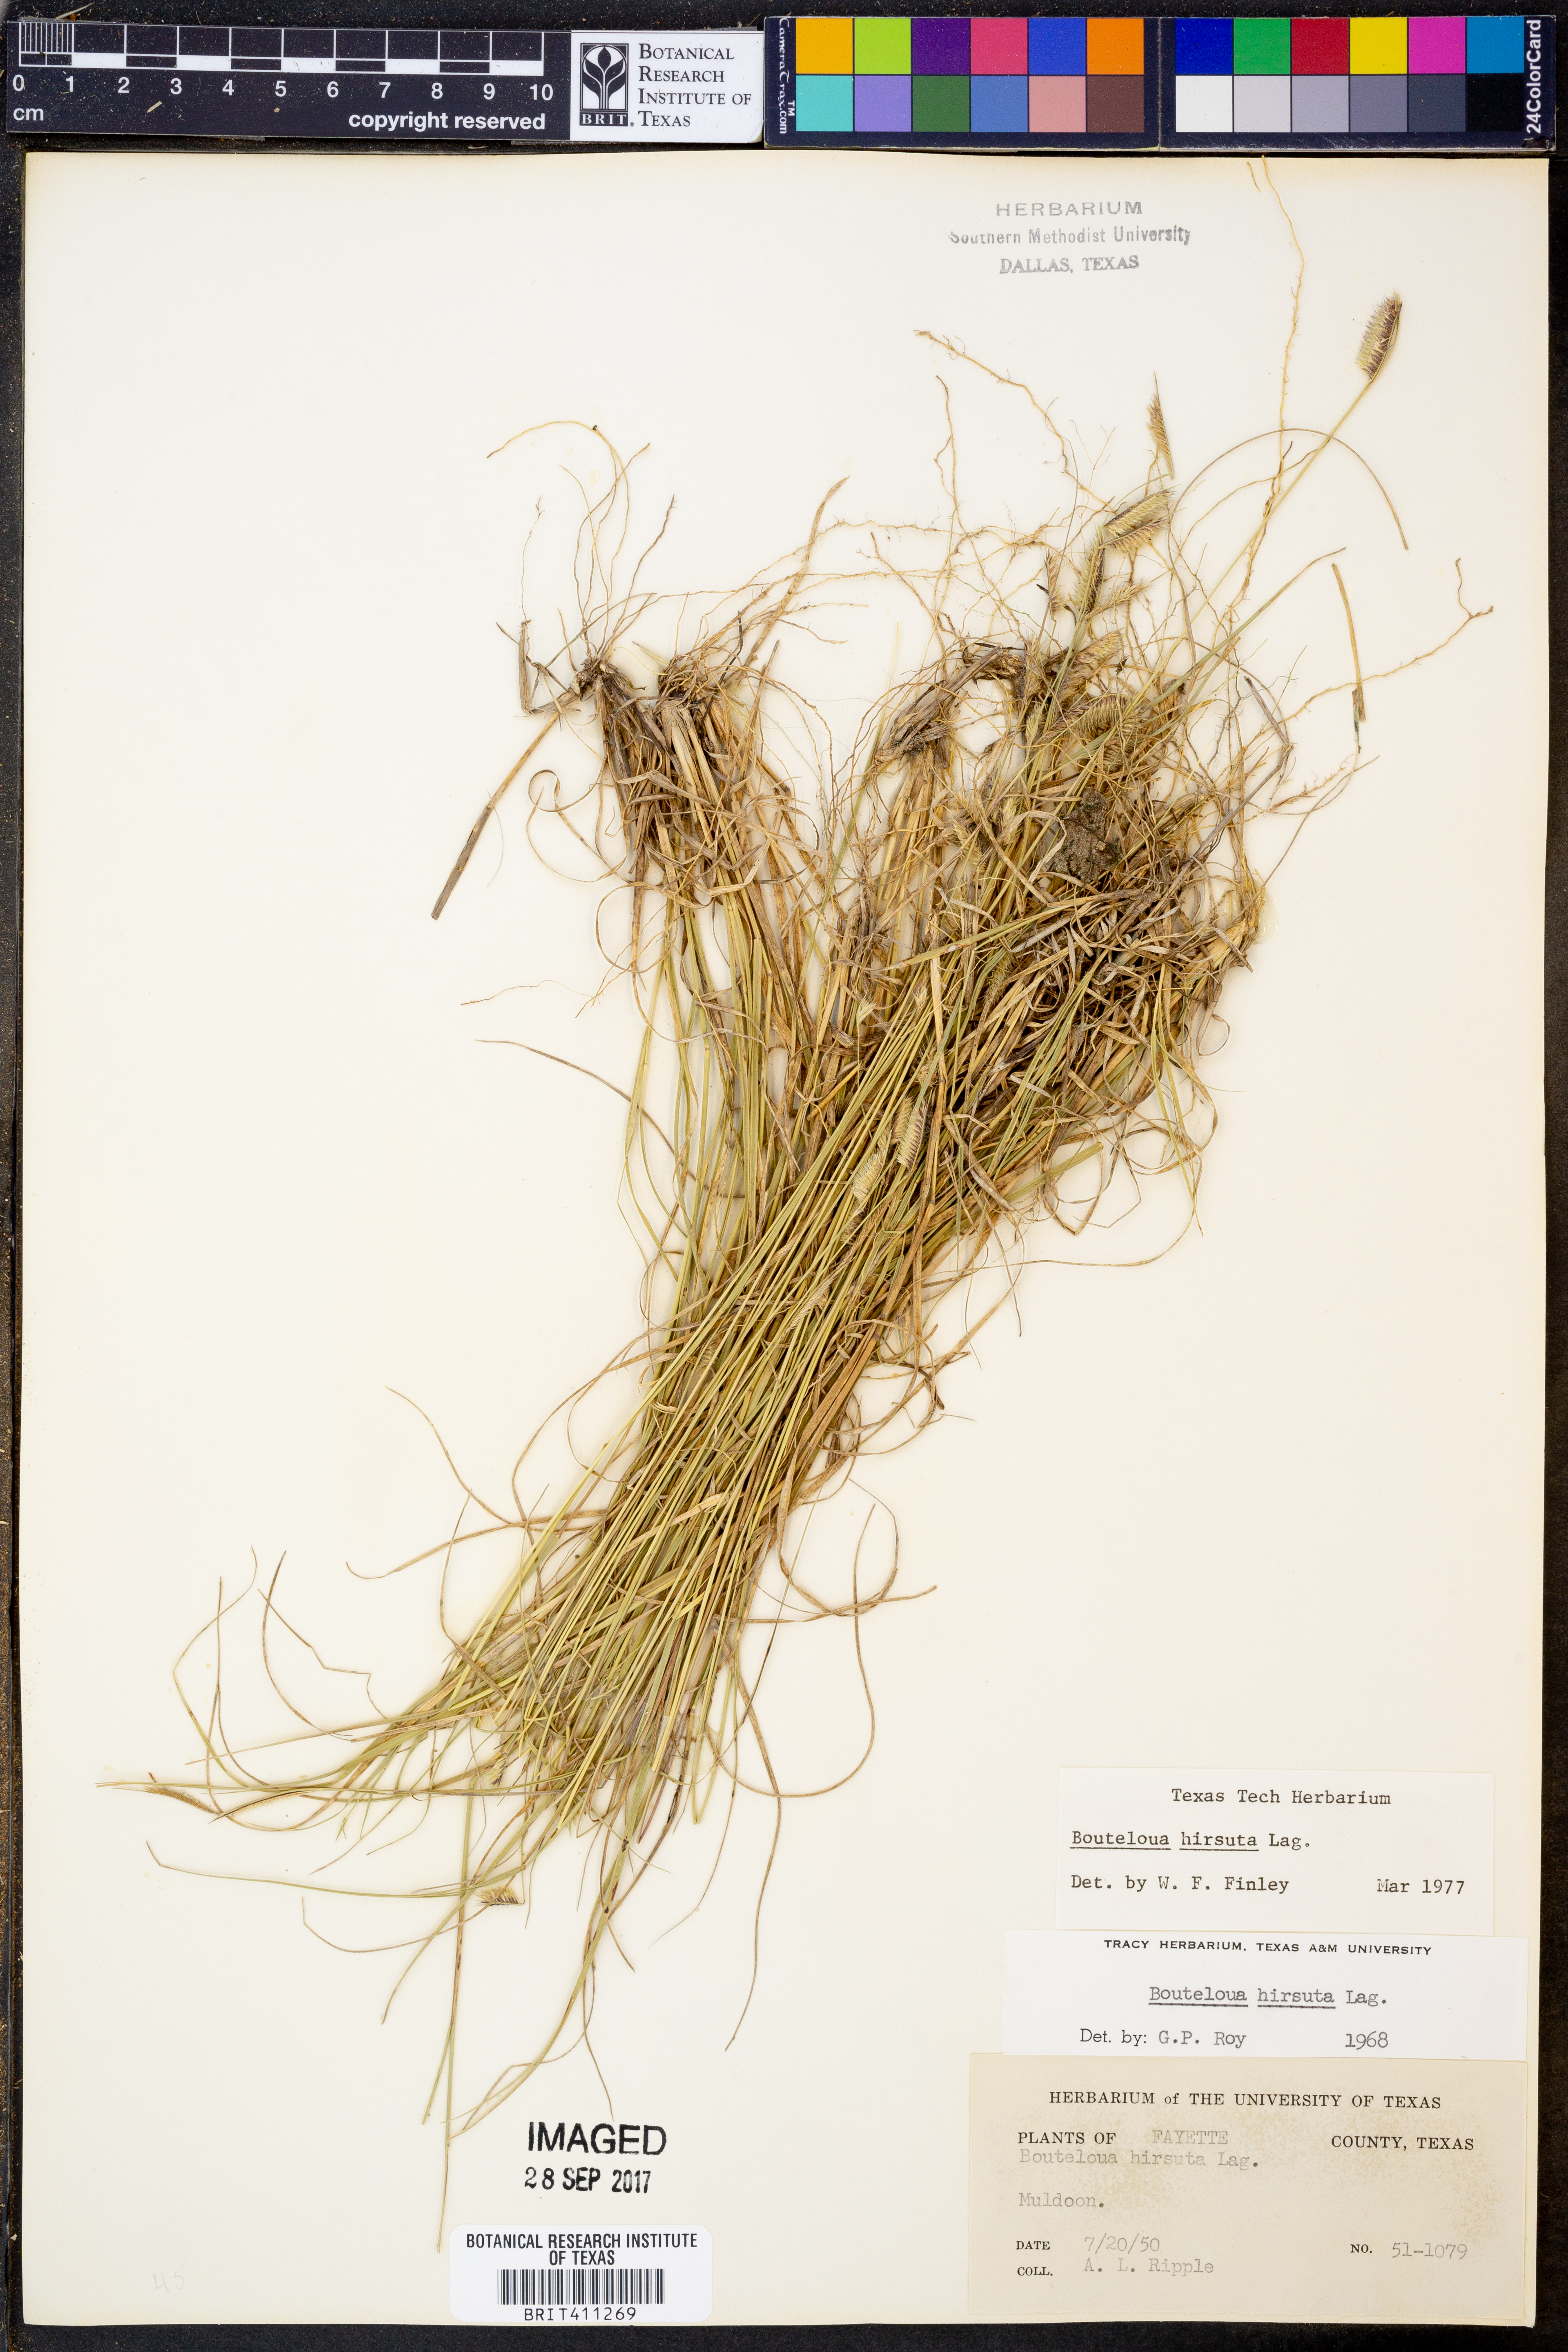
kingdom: Plantae
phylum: Tracheophyta
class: Liliopsida
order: Poales
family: Poaceae
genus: Bouteloua
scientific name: Bouteloua hirsuta
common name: Hairy grama
